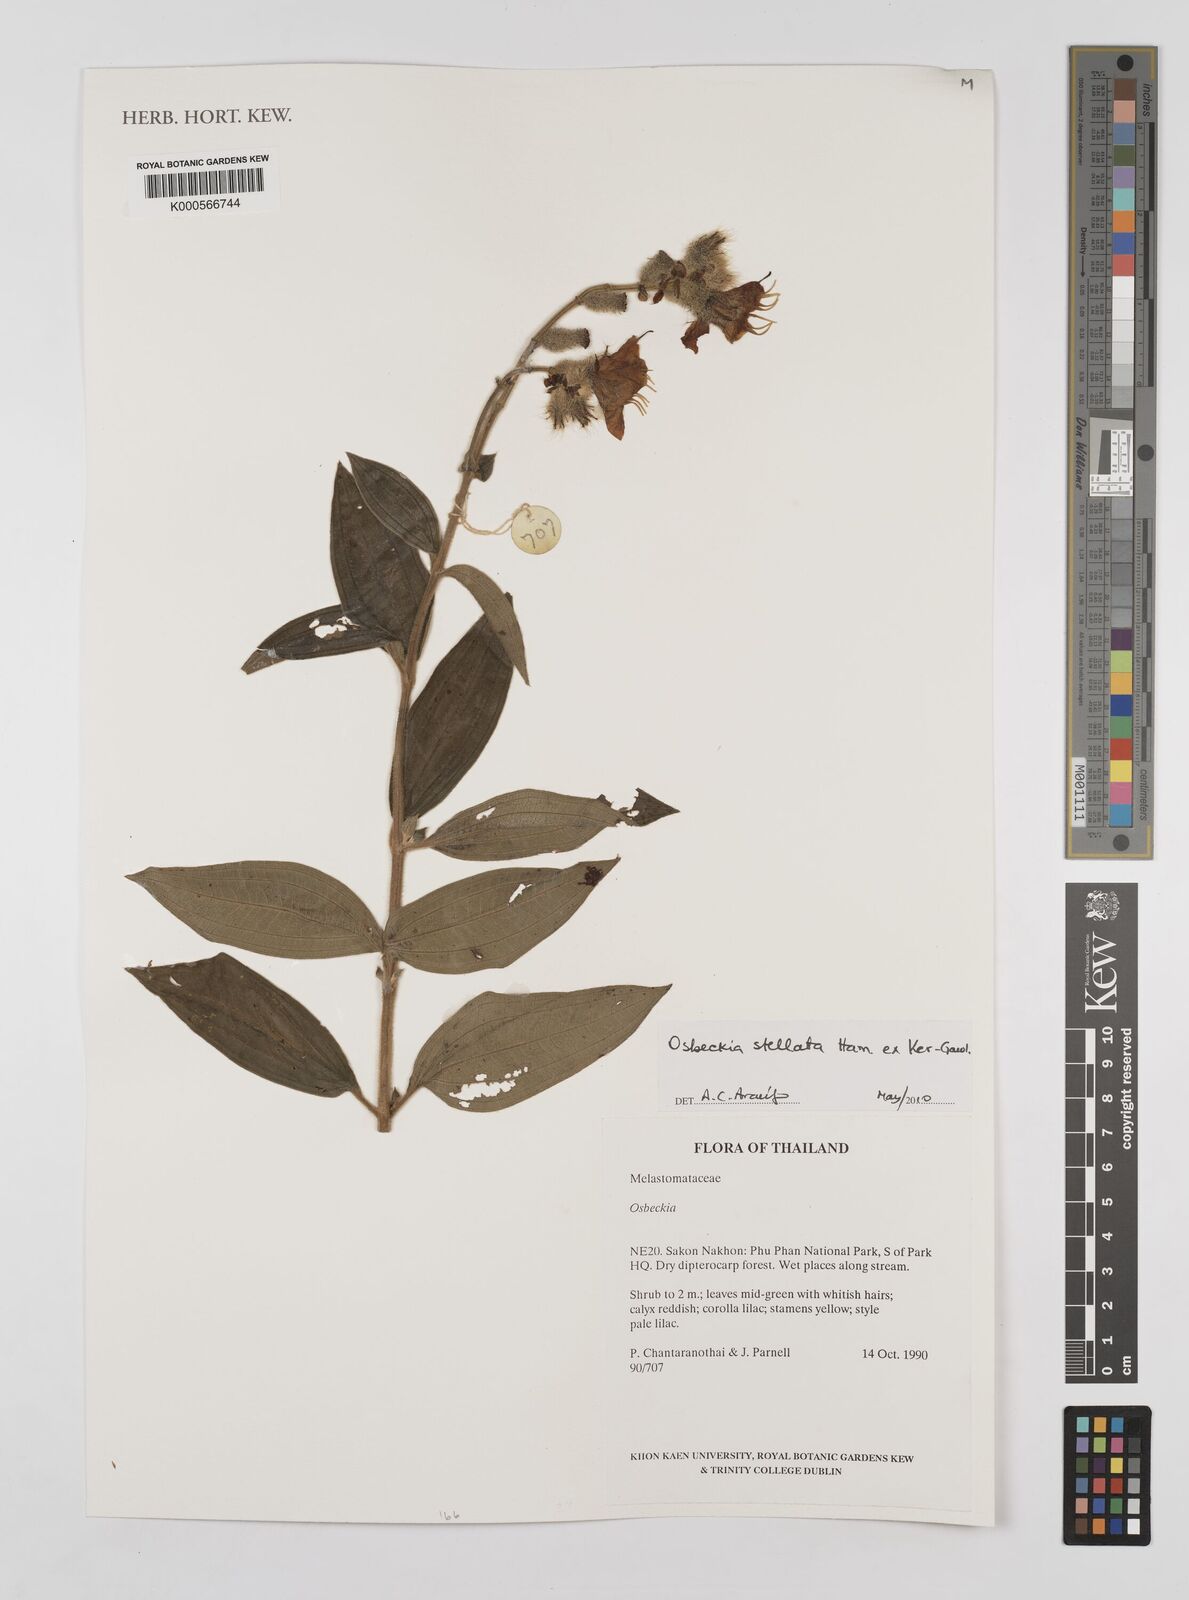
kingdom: Plantae
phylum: Tracheophyta
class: Magnoliopsida
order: Myrtales
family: Melastomataceae
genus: Osbeckia
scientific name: Osbeckia
